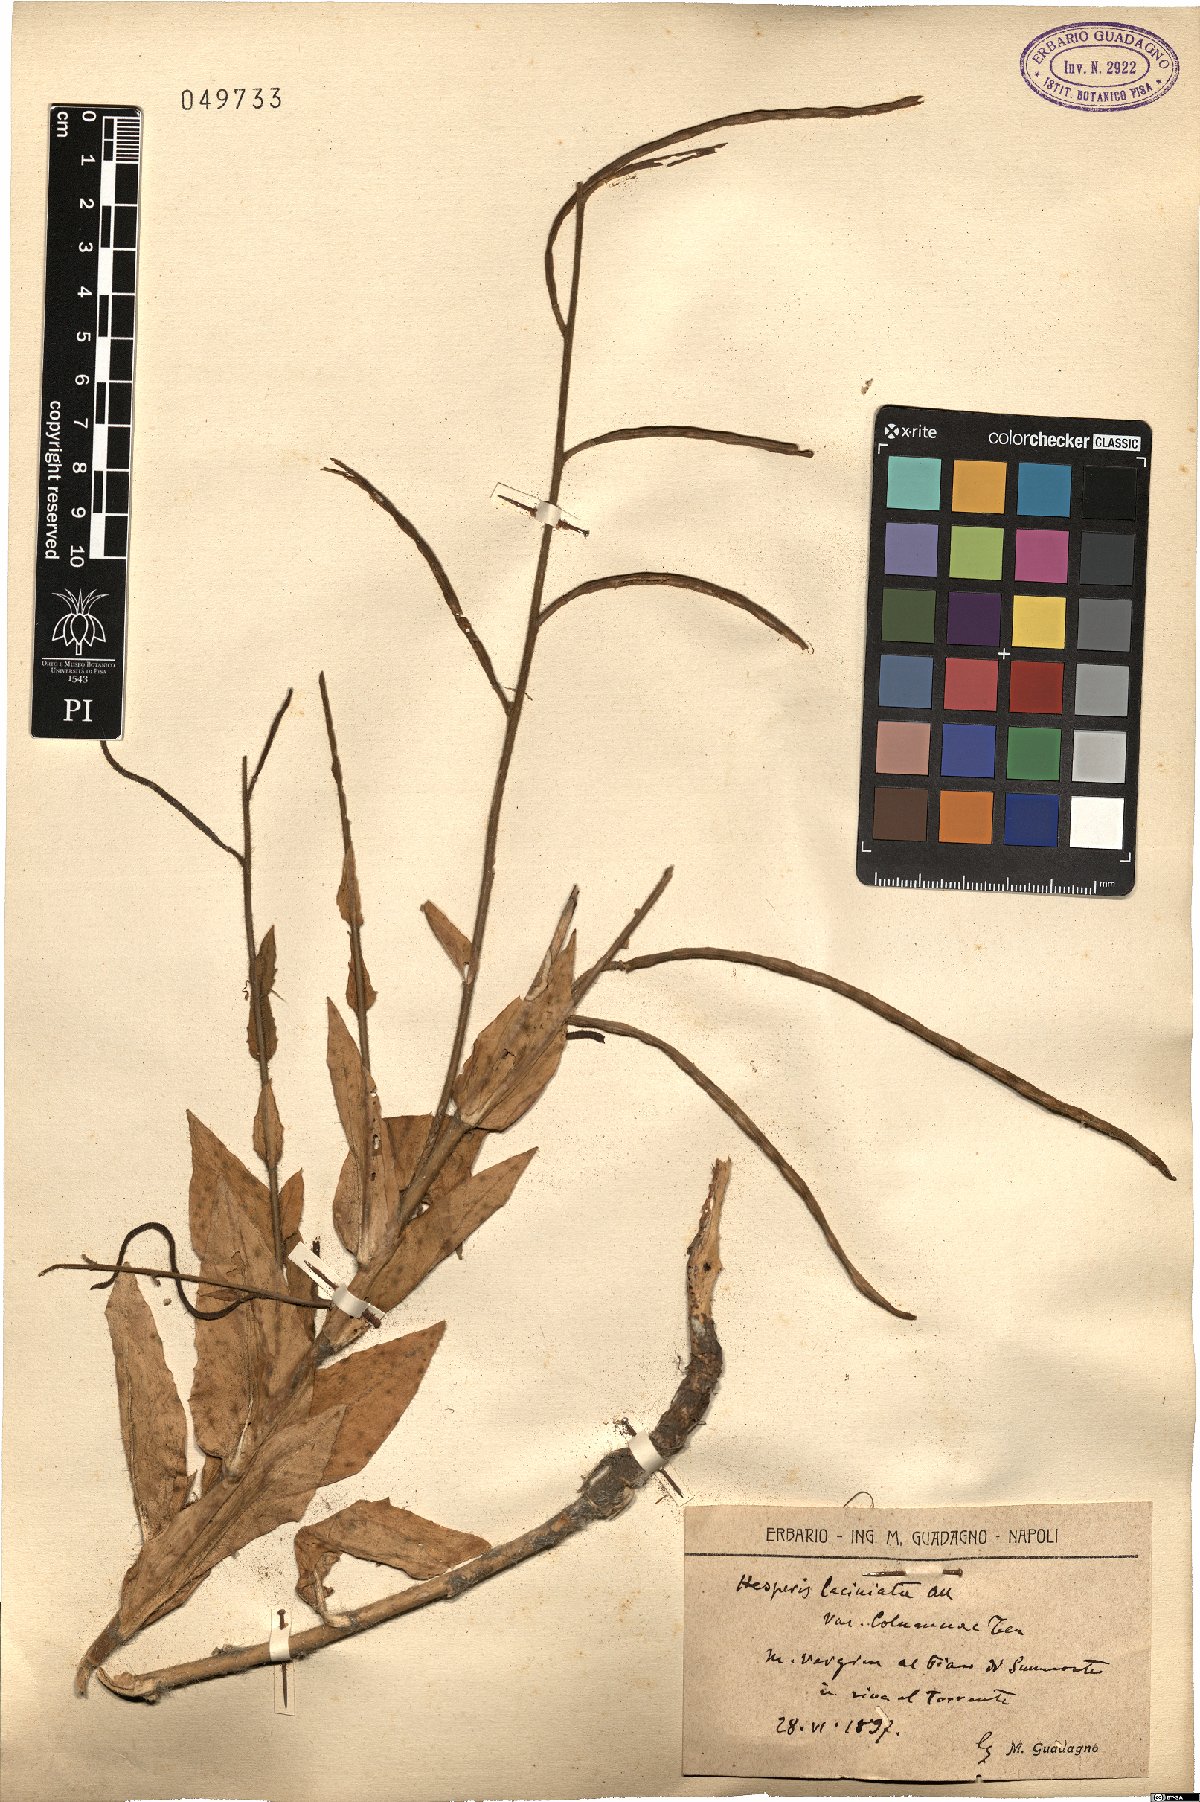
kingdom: Plantae
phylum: Tracheophyta
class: Magnoliopsida
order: Brassicales
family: Brassicaceae
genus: Hesperis
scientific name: Hesperis laciniata
